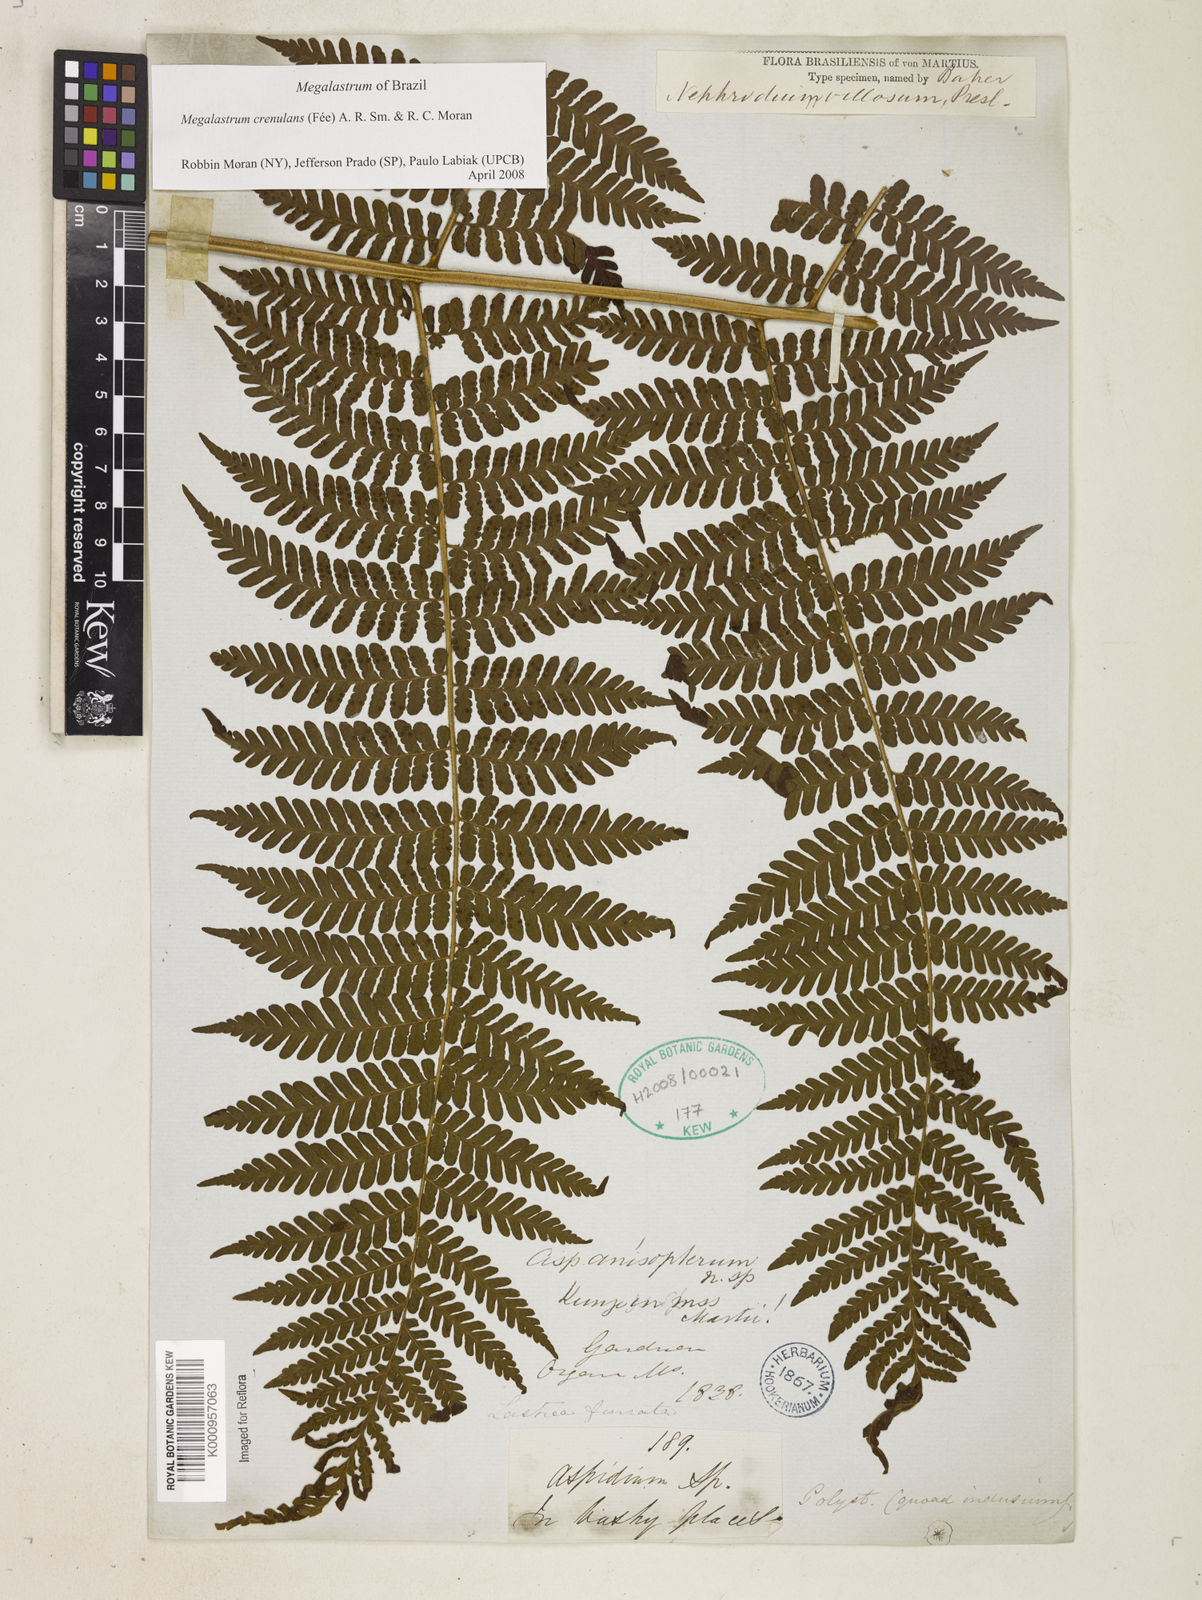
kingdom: Plantae
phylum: Tracheophyta
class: Polypodiopsida
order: Polypodiales
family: Dryopteridaceae
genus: Megalastrum
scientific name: Megalastrum
